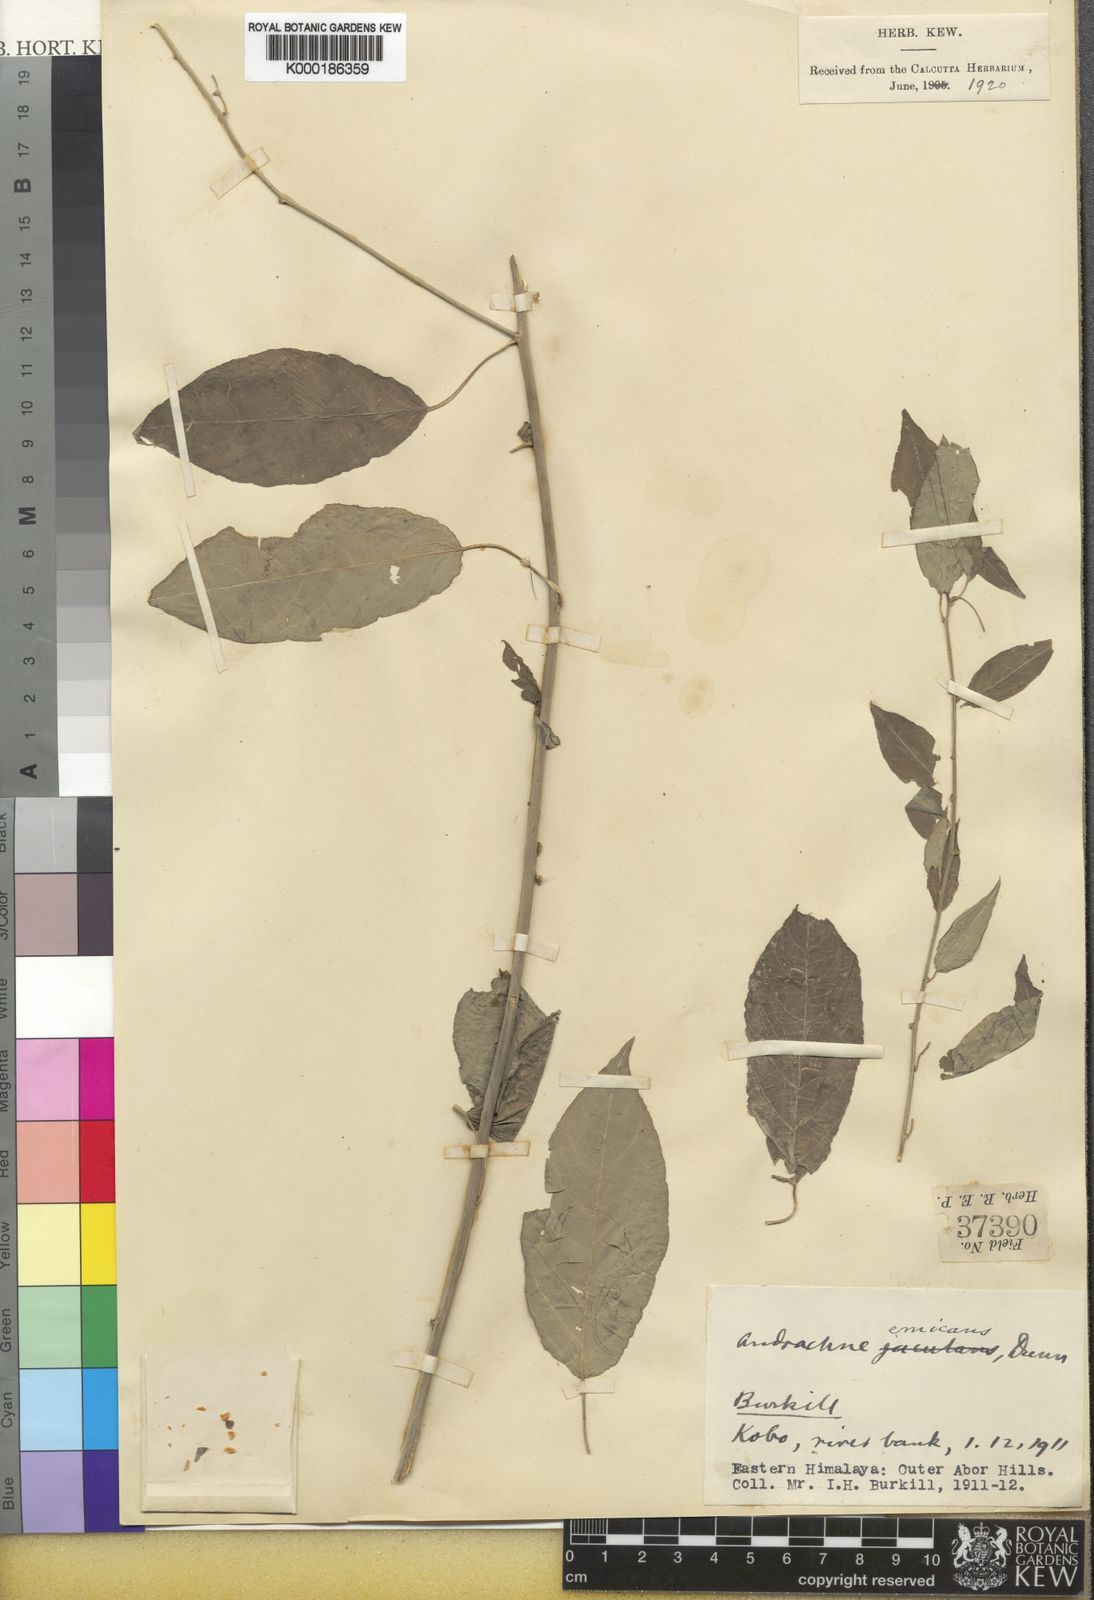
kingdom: Plantae
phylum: Tracheophyta
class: Magnoliopsida
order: Malpighiales
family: Phyllanthaceae
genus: Leptopus
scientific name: Leptopus emicans
